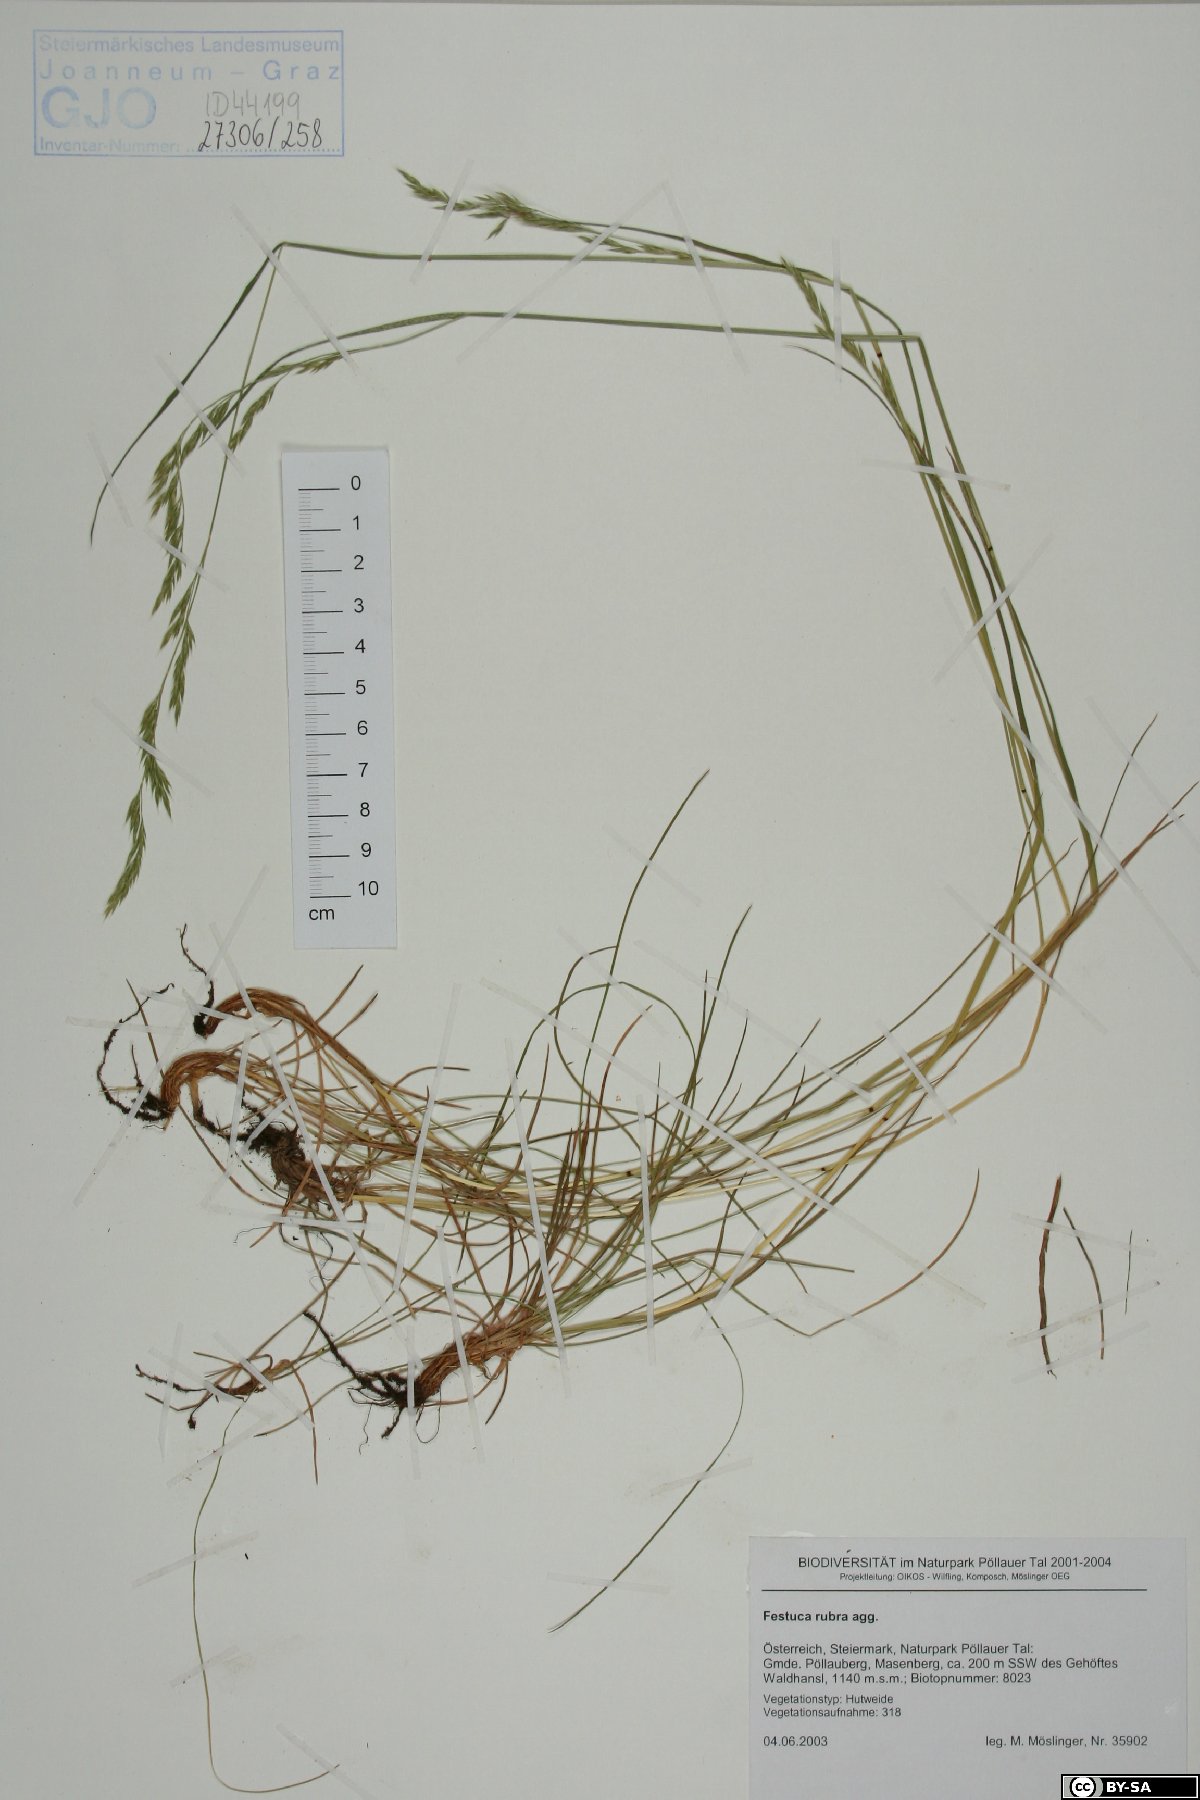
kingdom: Plantae
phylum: Tracheophyta
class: Liliopsida
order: Poales
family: Poaceae
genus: Festuca
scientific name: Festuca rubra
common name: Red fescue
